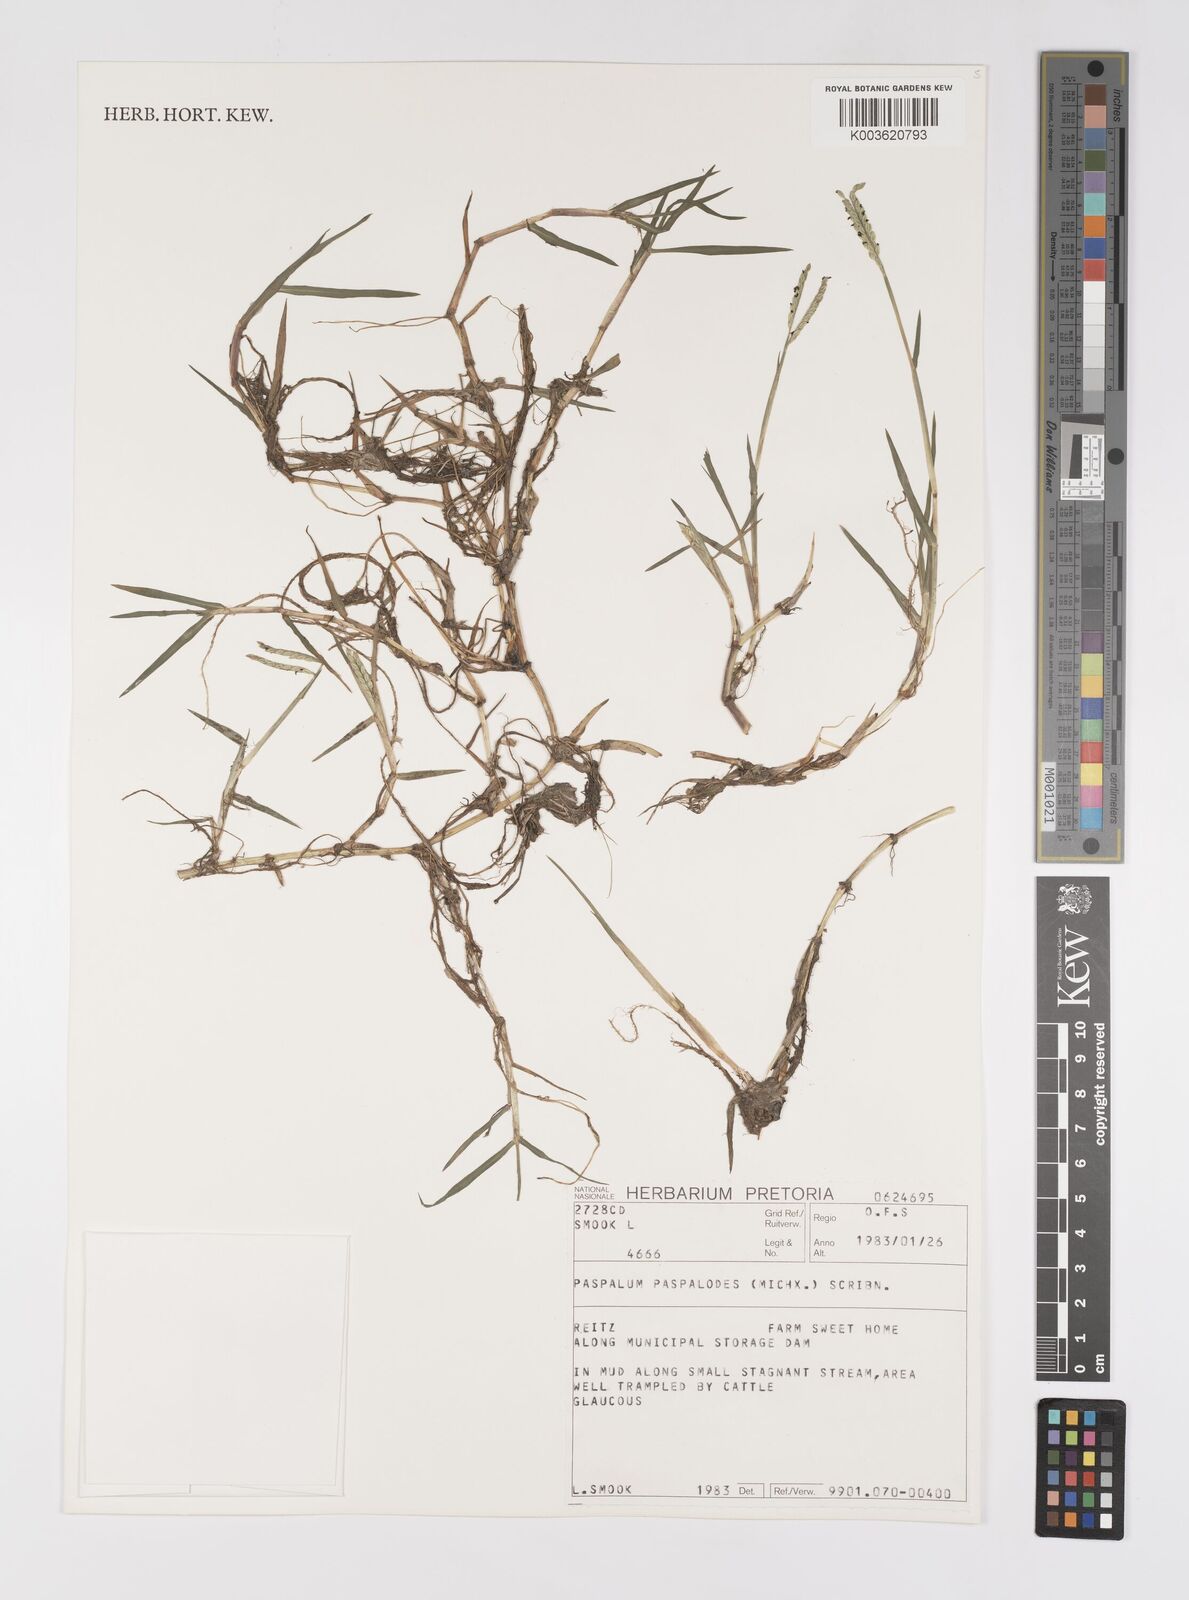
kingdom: Plantae
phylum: Tracheophyta
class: Liliopsida
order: Poales
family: Poaceae
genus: Paspalum
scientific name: Paspalum distichum
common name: Knotgrass
